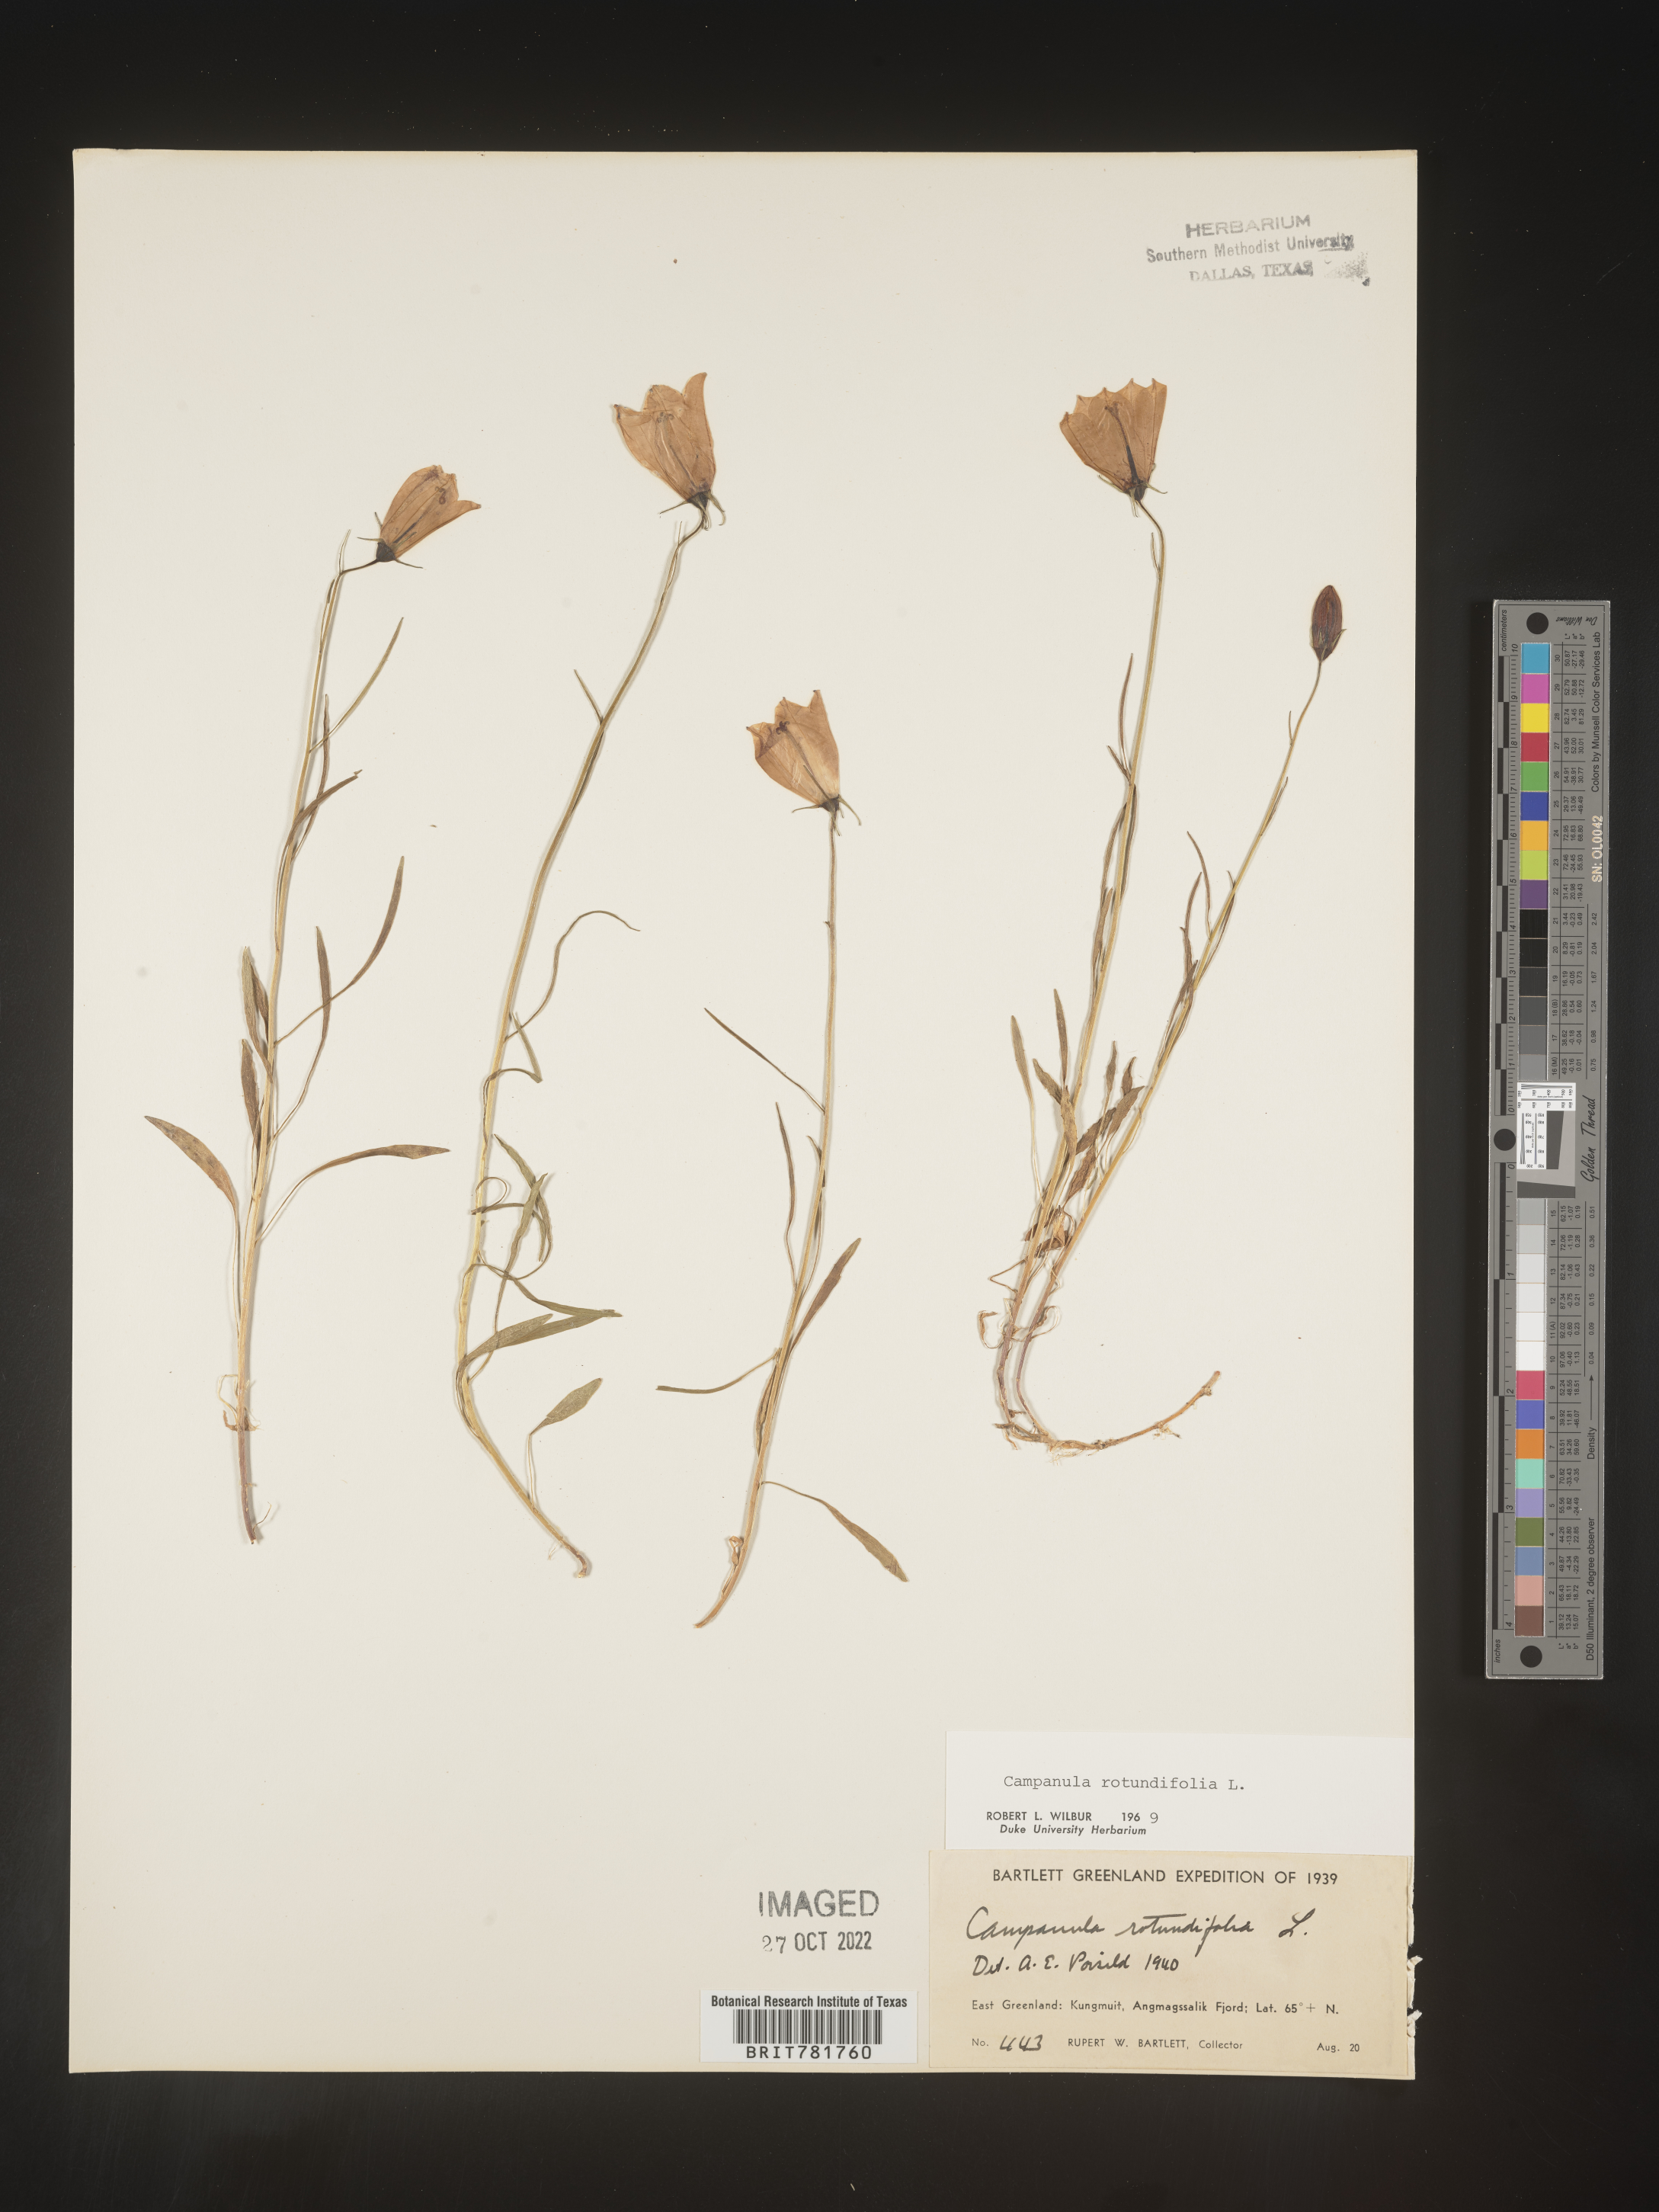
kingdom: Plantae
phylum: Tracheophyta
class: Magnoliopsida
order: Asterales
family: Campanulaceae
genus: Campanula
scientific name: Campanula rotundifolia
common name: Harebell
